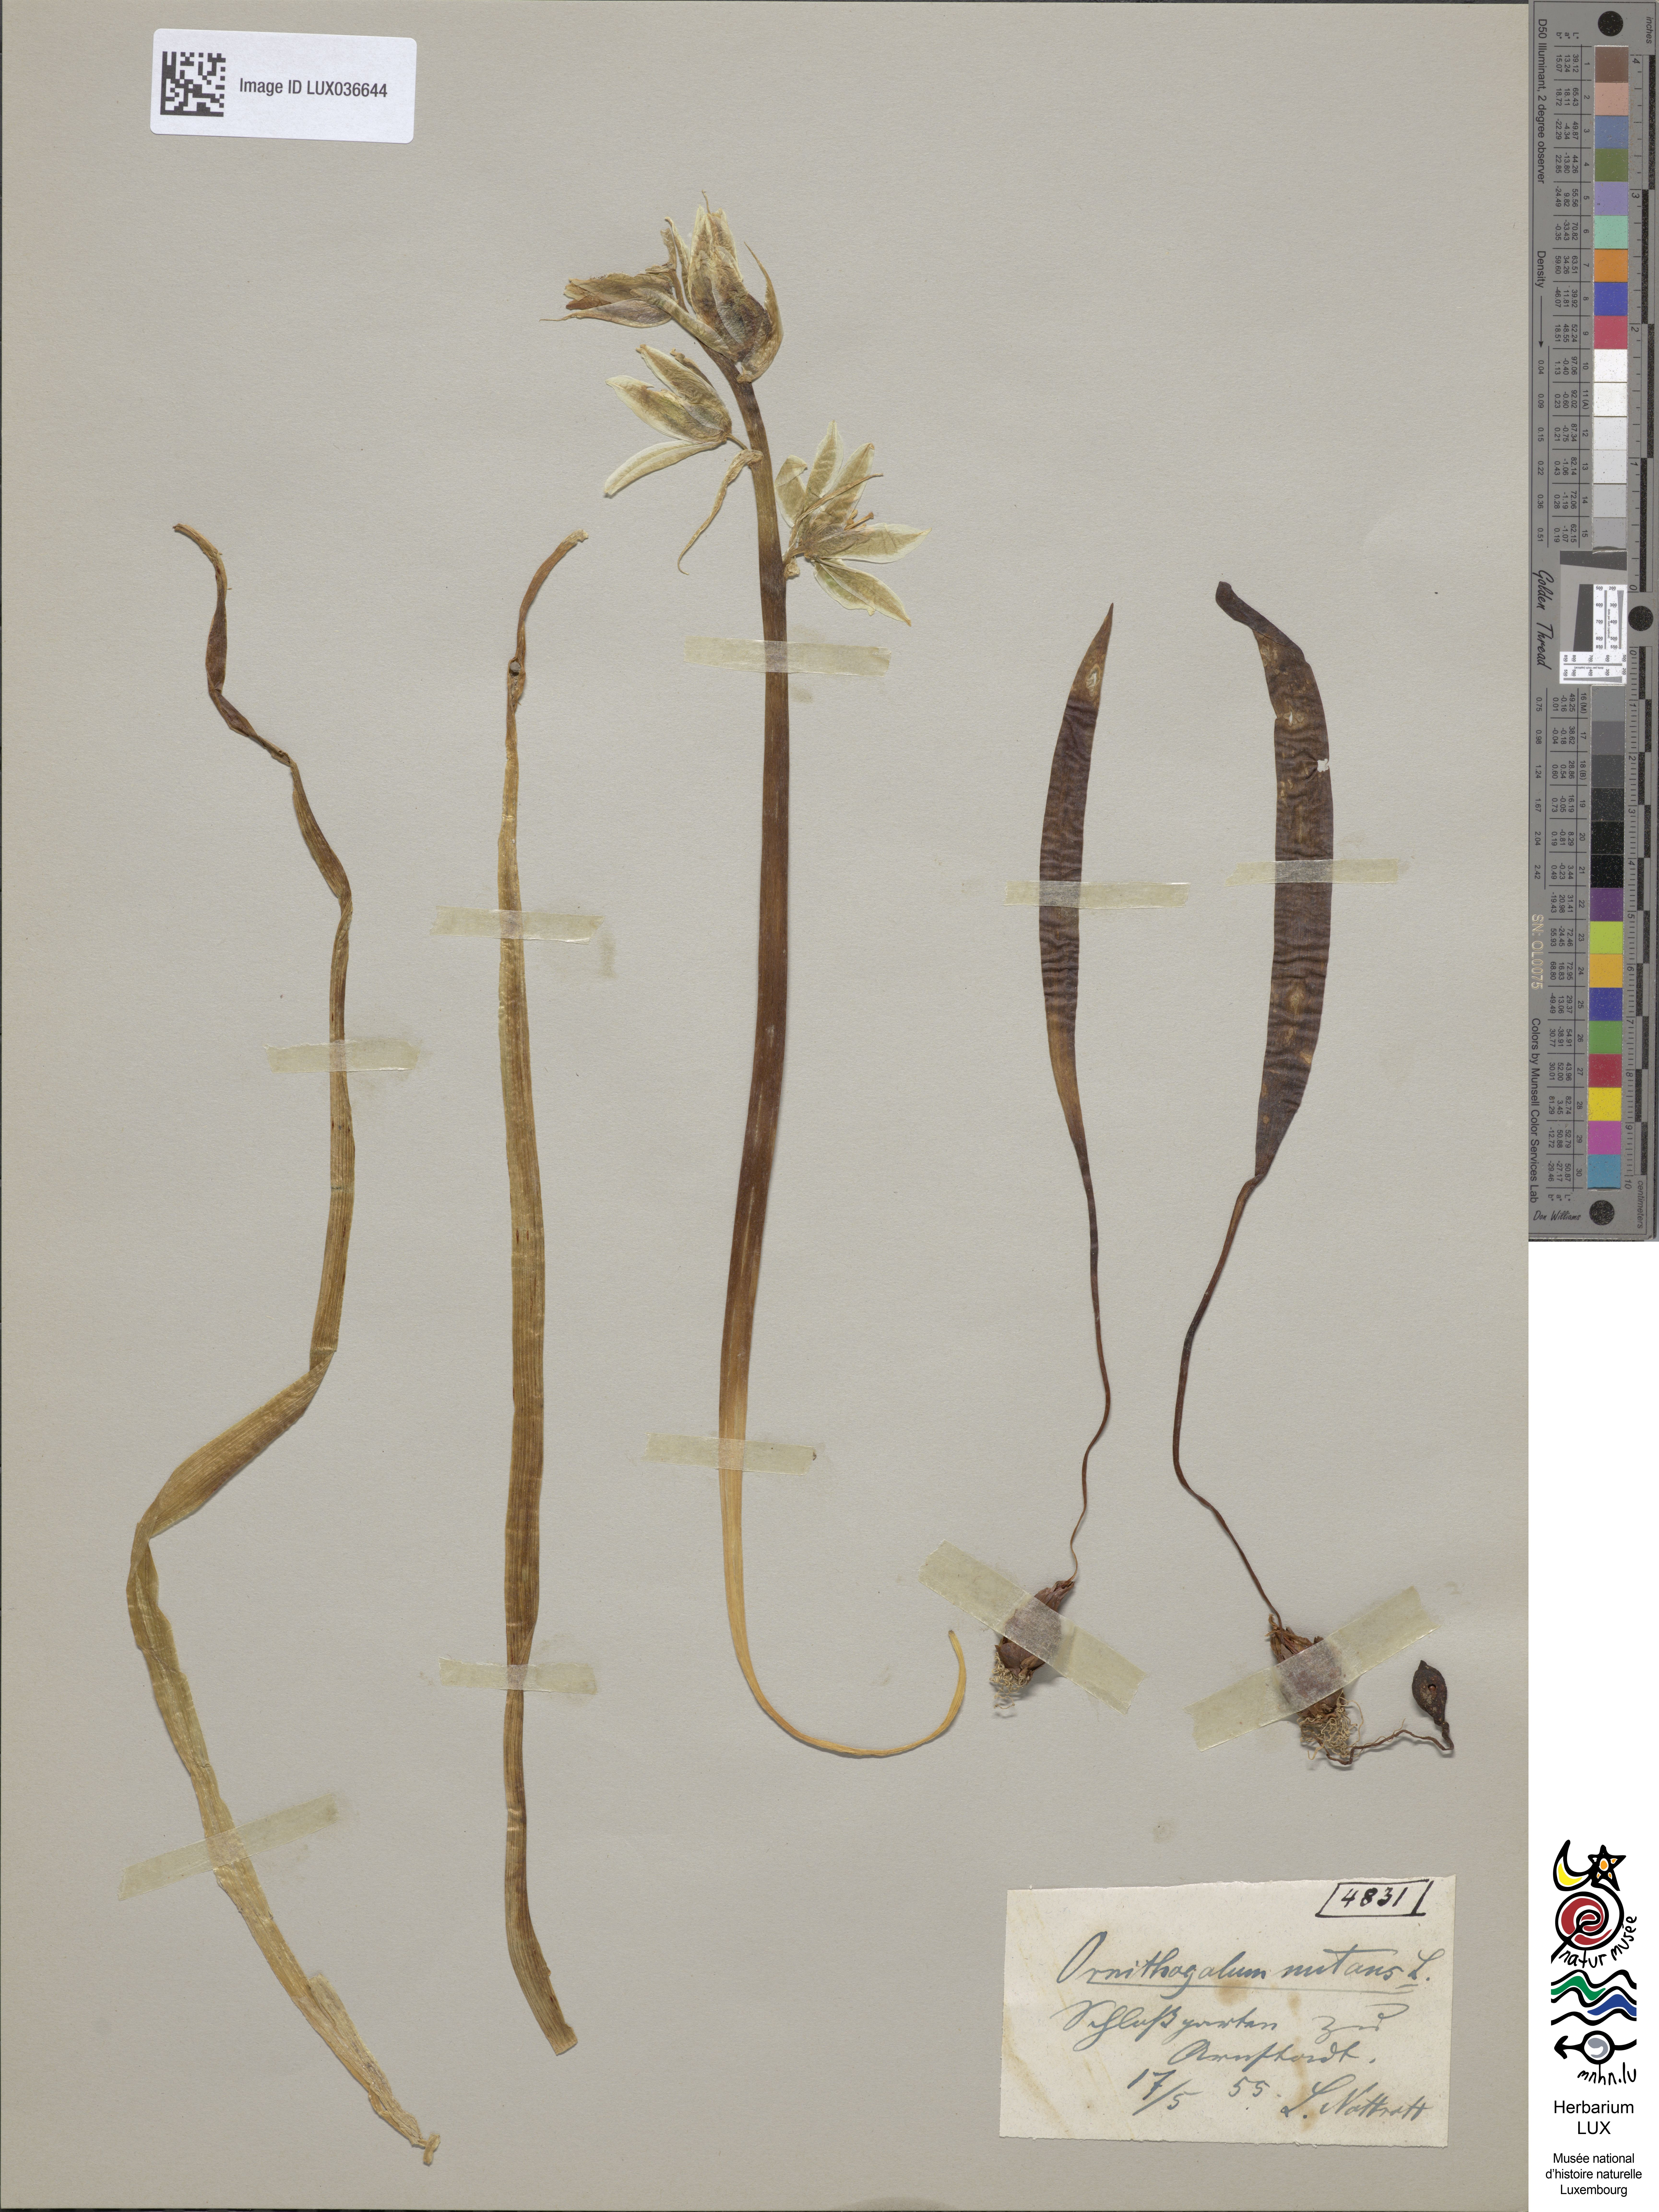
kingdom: Plantae
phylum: Tracheophyta
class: Liliopsida
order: Asparagales
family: Asparagaceae
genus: Ornithogalum
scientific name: Ornithogalum nutans
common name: Drooping star-of-bethlehem
